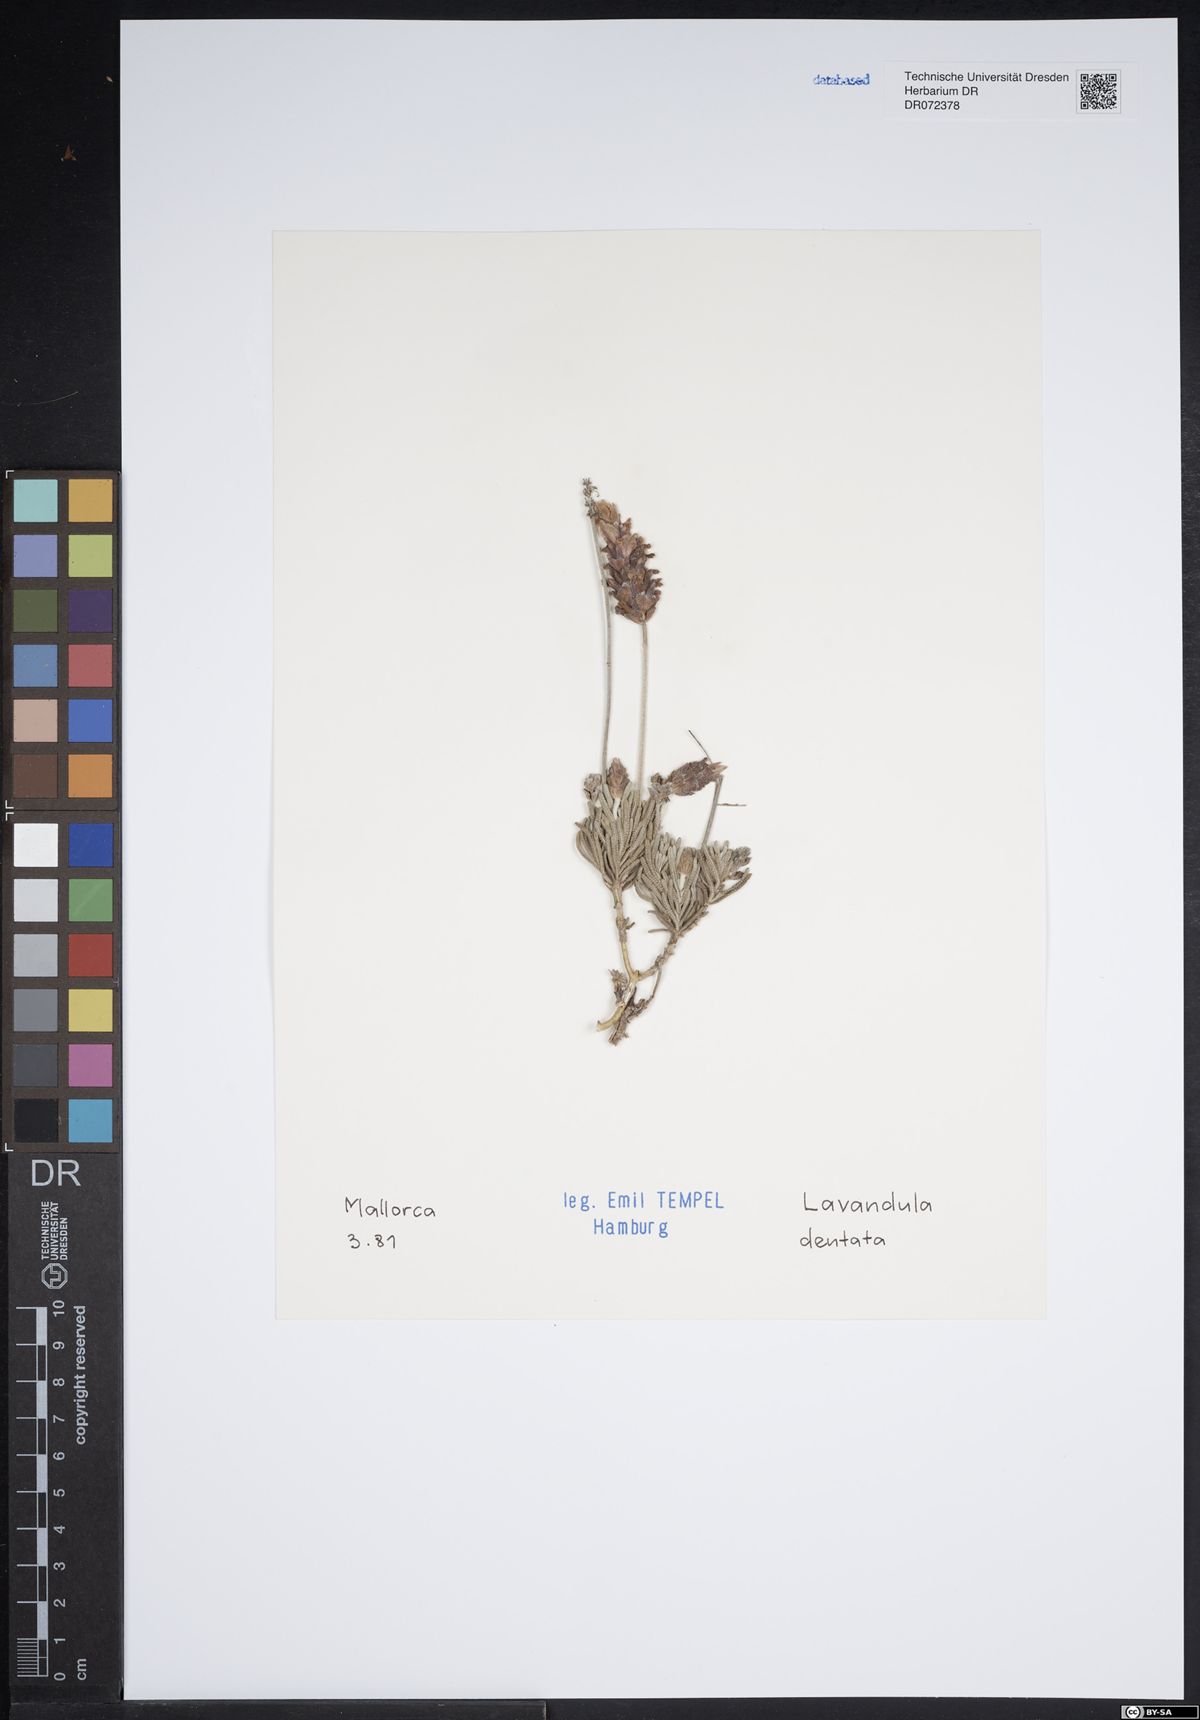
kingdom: Plantae
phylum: Tracheophyta
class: Magnoliopsida
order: Lamiales
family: Lamiaceae
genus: Lavandula
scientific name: Lavandula dentata
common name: French lavender
